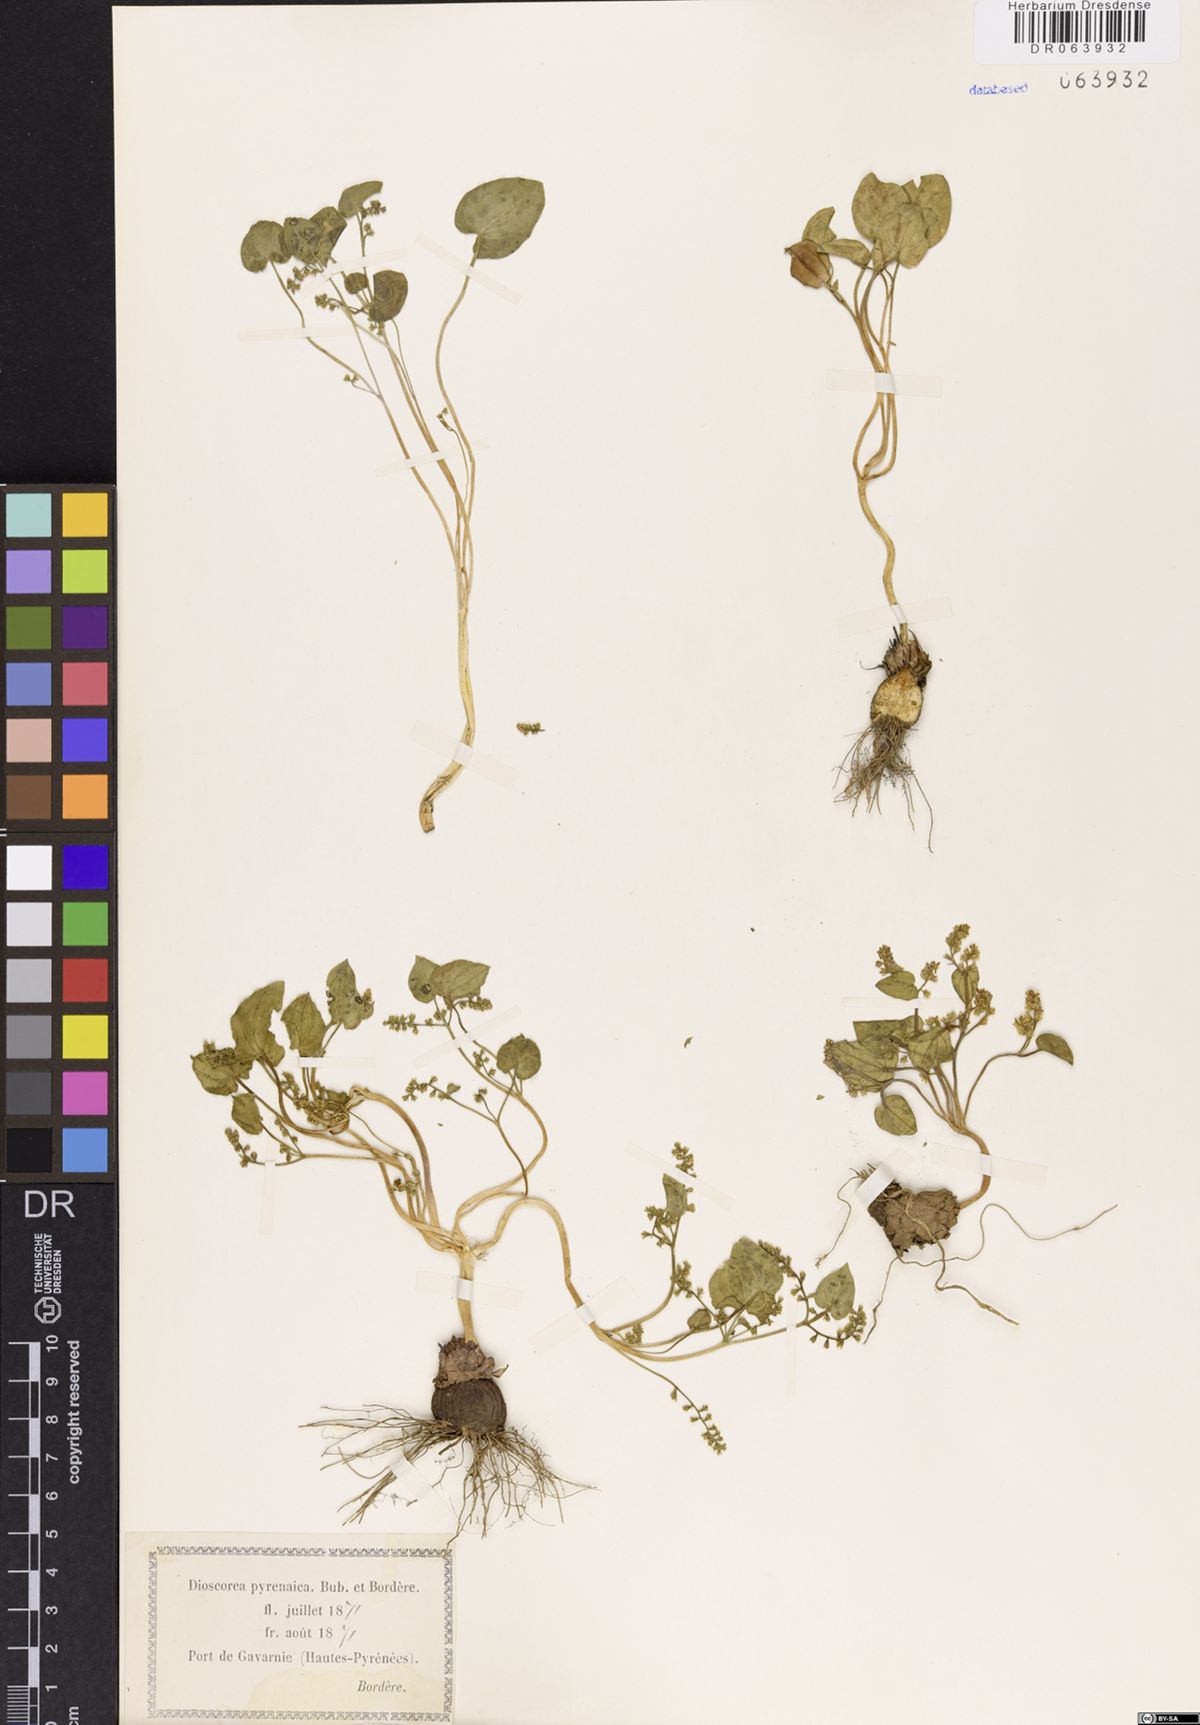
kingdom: Plantae
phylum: Tracheophyta
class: Liliopsida
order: Dioscoreales
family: Dioscoreaceae
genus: Dioscorea
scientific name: Dioscorea pyrenaica
